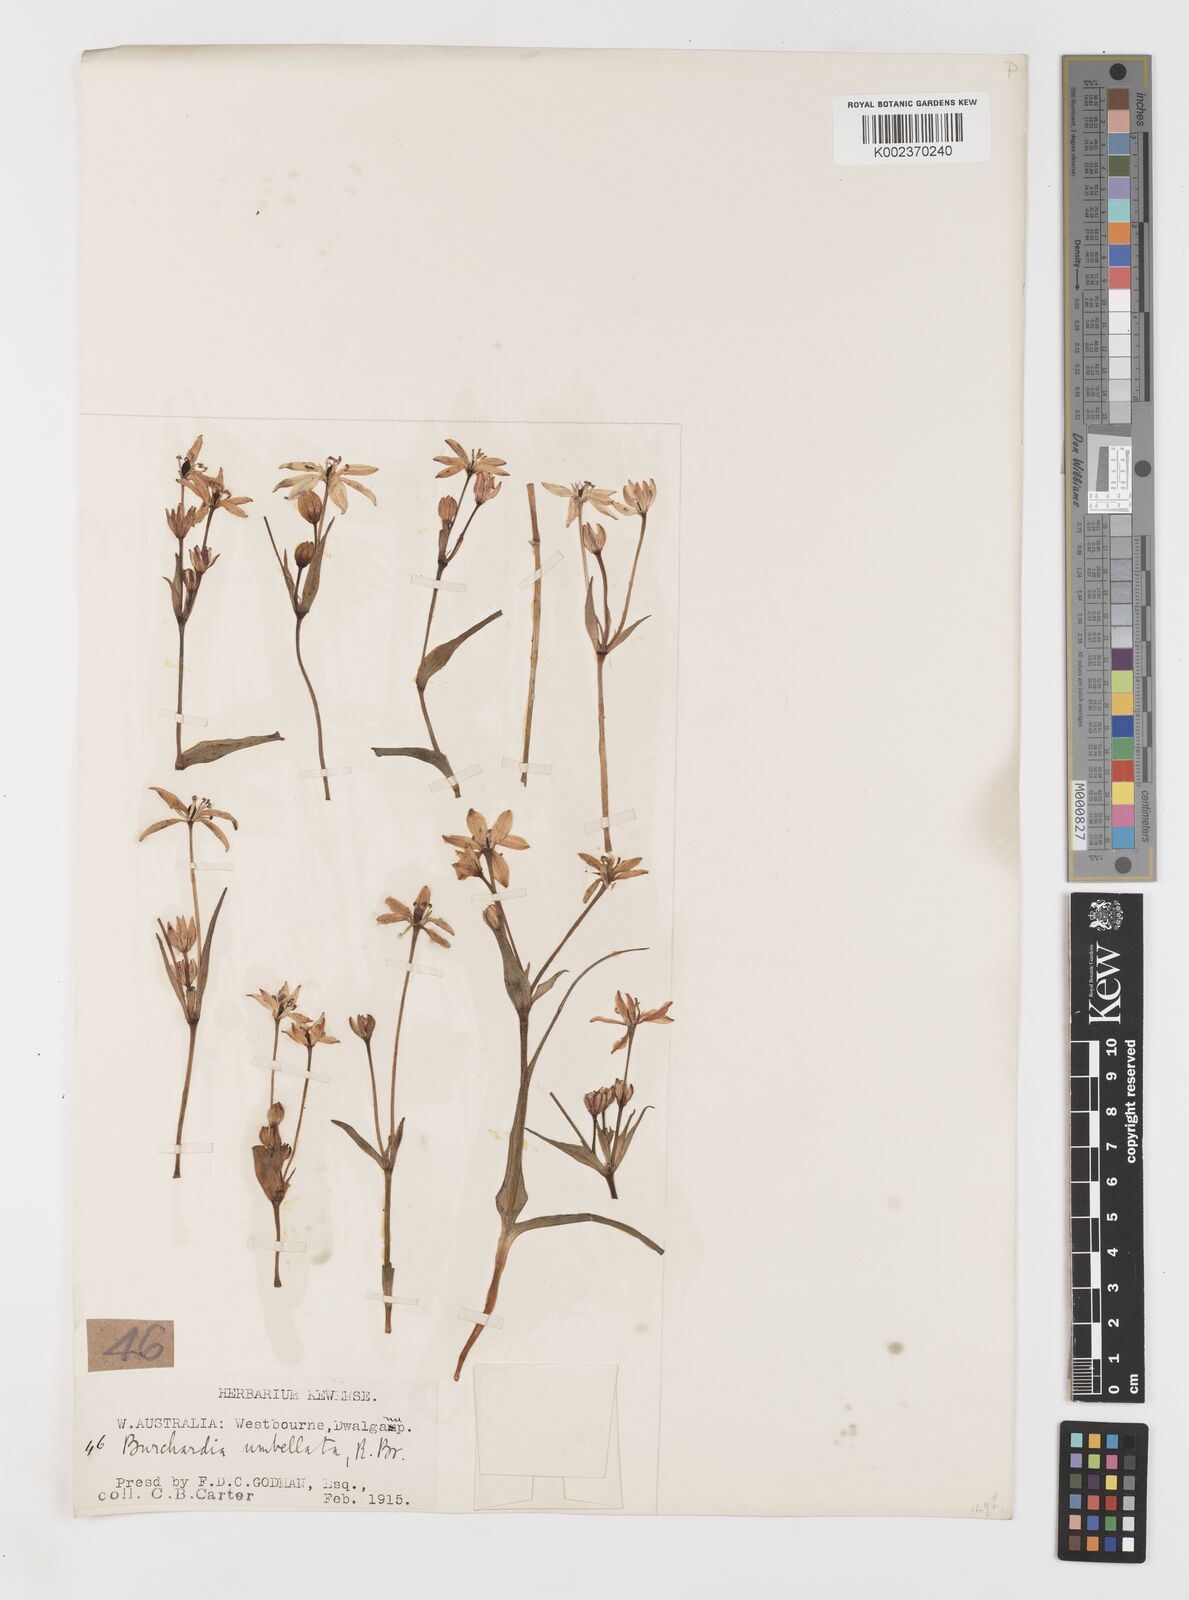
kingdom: Plantae
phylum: Tracheophyta
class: Liliopsida
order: Liliales
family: Colchicaceae
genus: Burchardia
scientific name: Burchardia multiflora
